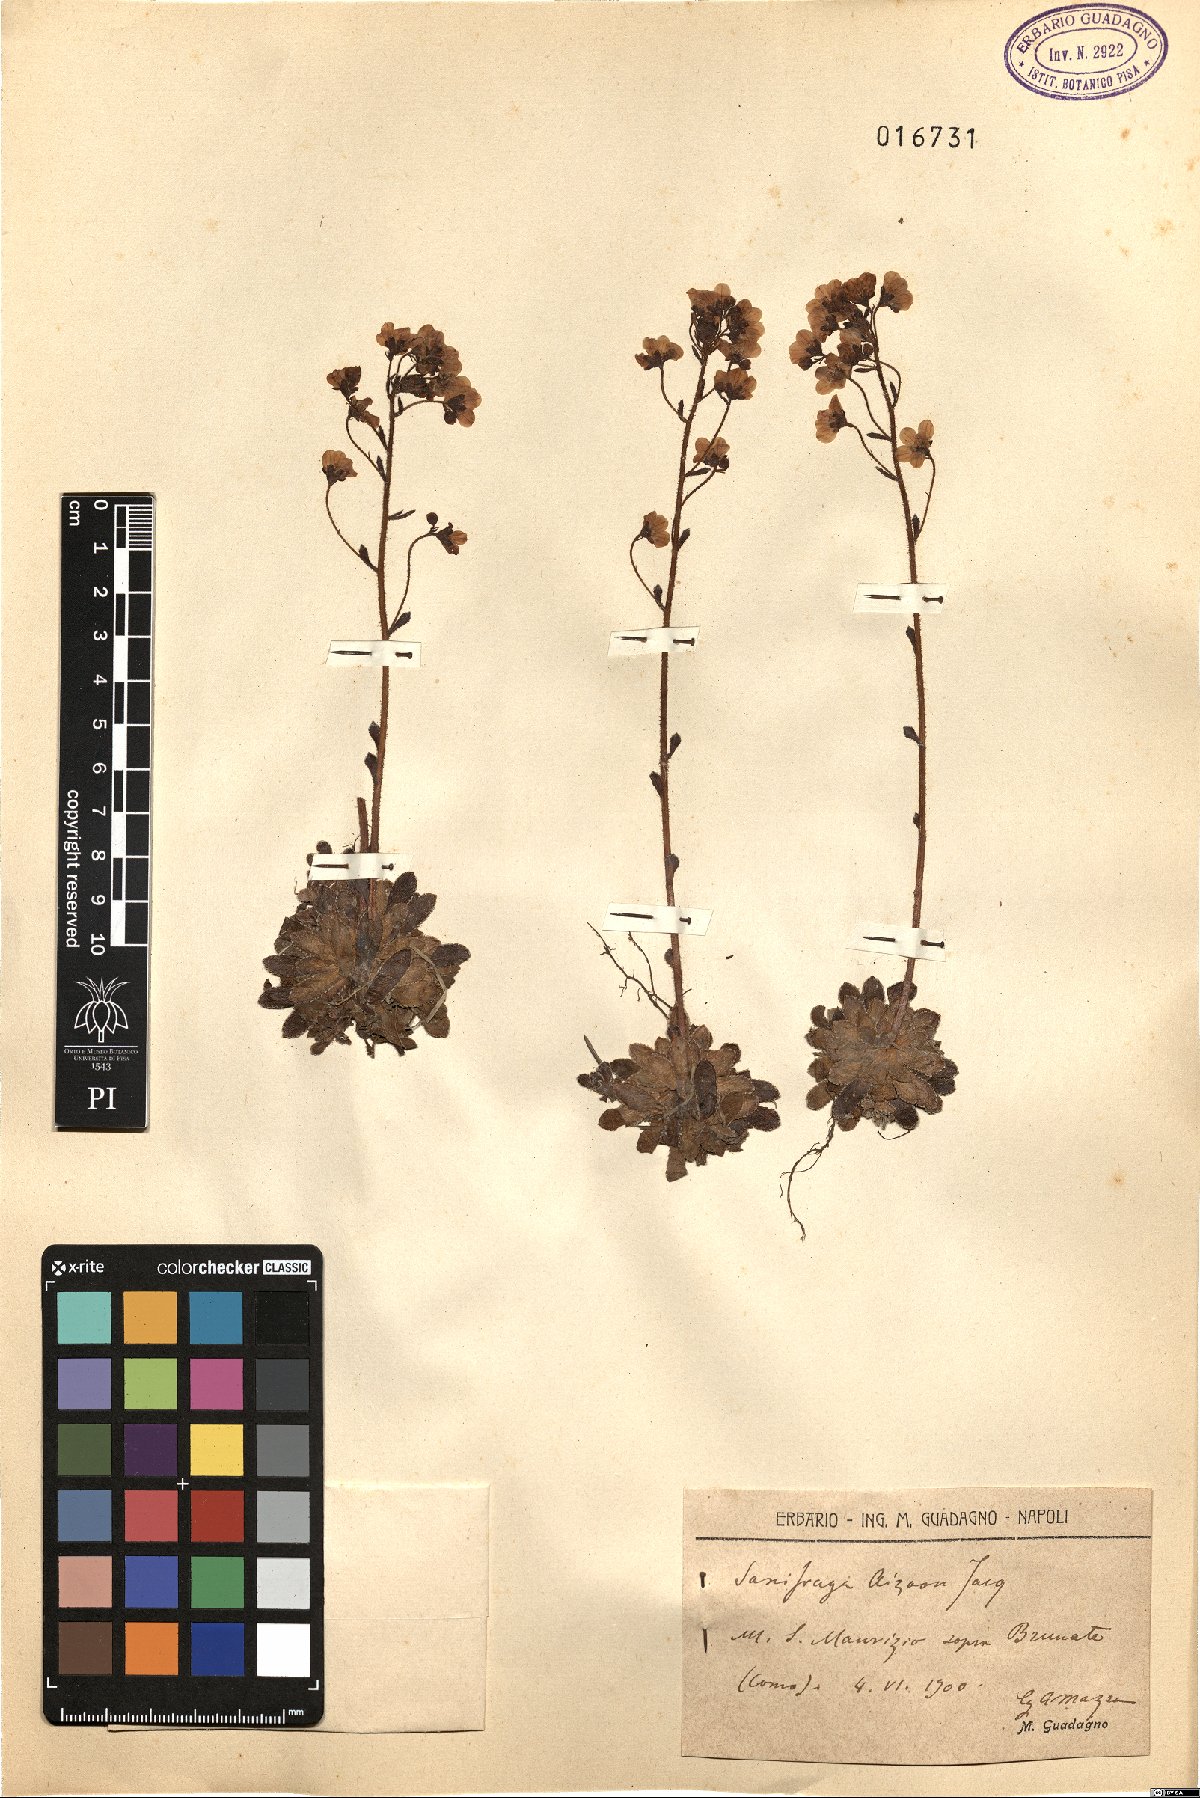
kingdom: Plantae
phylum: Tracheophyta
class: Magnoliopsida
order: Saxifragales
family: Saxifragaceae
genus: Saxifraga
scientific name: Saxifraga paniculata
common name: Livelong saxifrage
